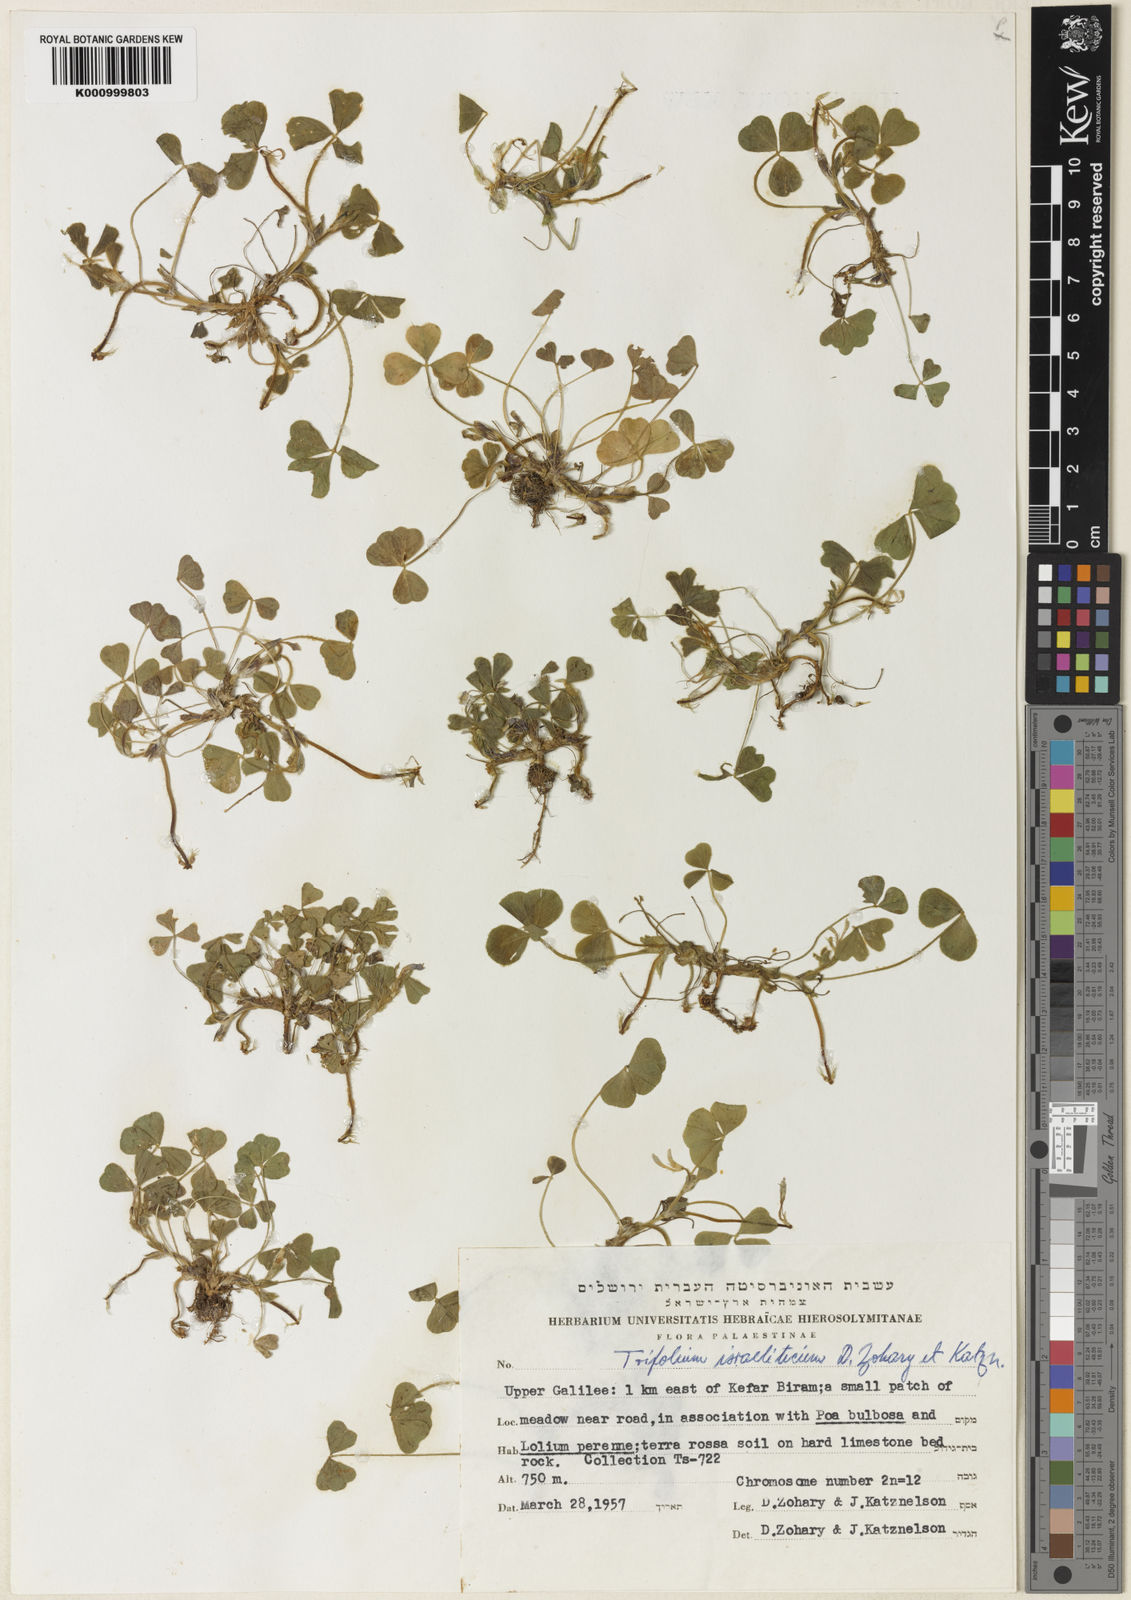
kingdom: Plantae
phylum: Tracheophyta
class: Magnoliopsida
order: Fabales
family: Fabaceae
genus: Trifolium
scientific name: Trifolium israeliticum
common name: Israel clover
